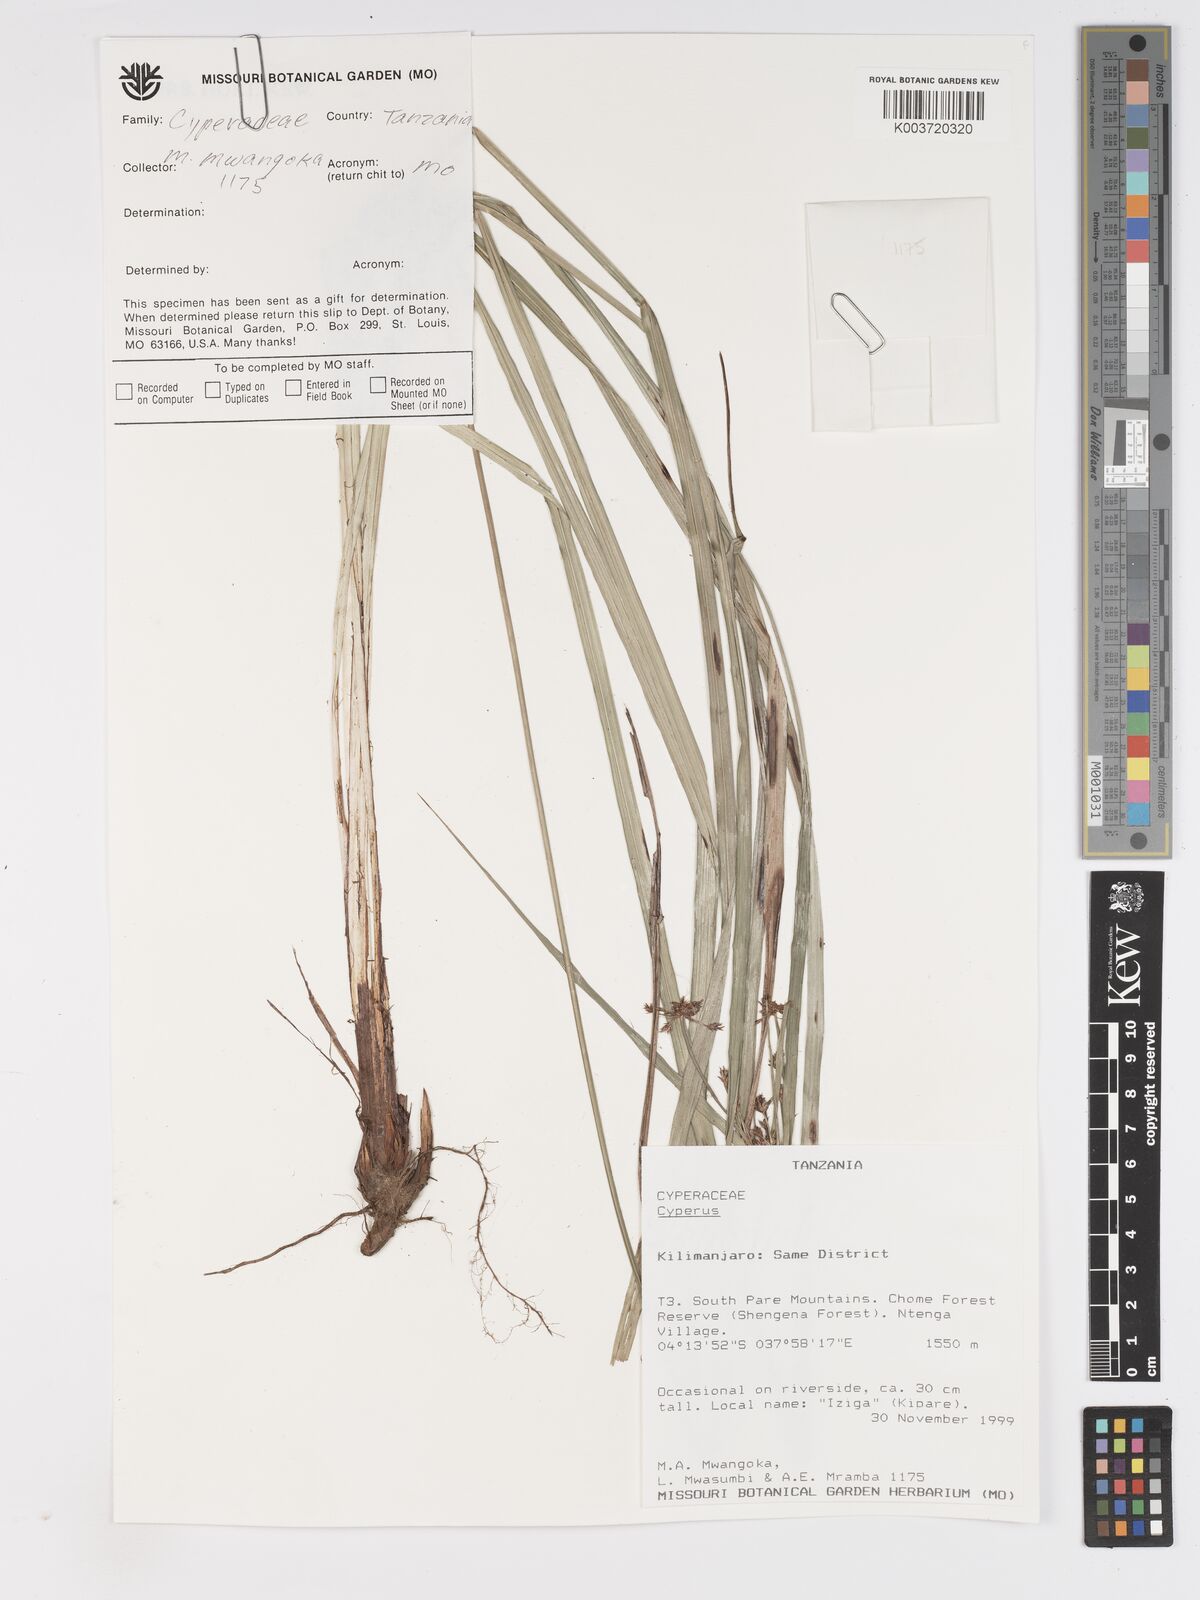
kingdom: Plantae
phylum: Tracheophyta
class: Liliopsida
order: Poales
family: Cyperaceae
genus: Cyperus
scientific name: Cyperus
